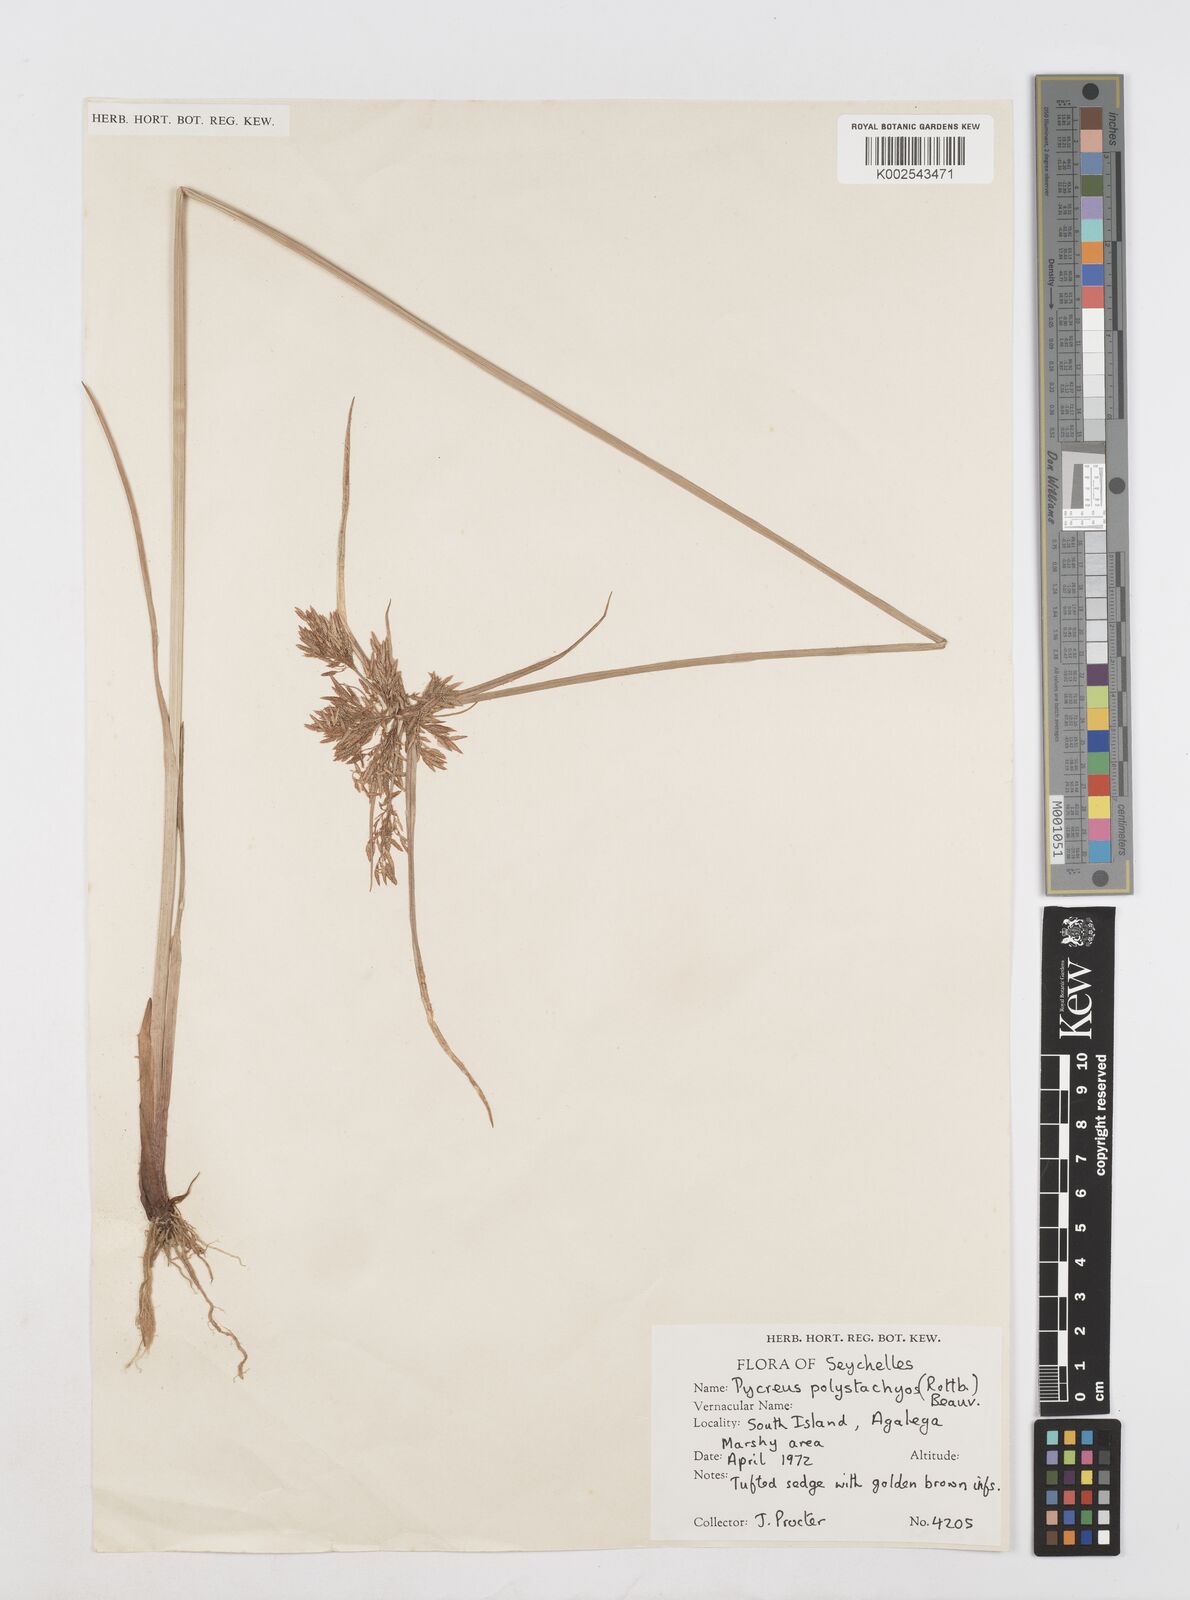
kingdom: Plantae
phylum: Tracheophyta
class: Liliopsida
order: Poales
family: Cyperaceae
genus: Cyperus
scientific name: Cyperus polystachyos
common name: Bunchy flat sedge
